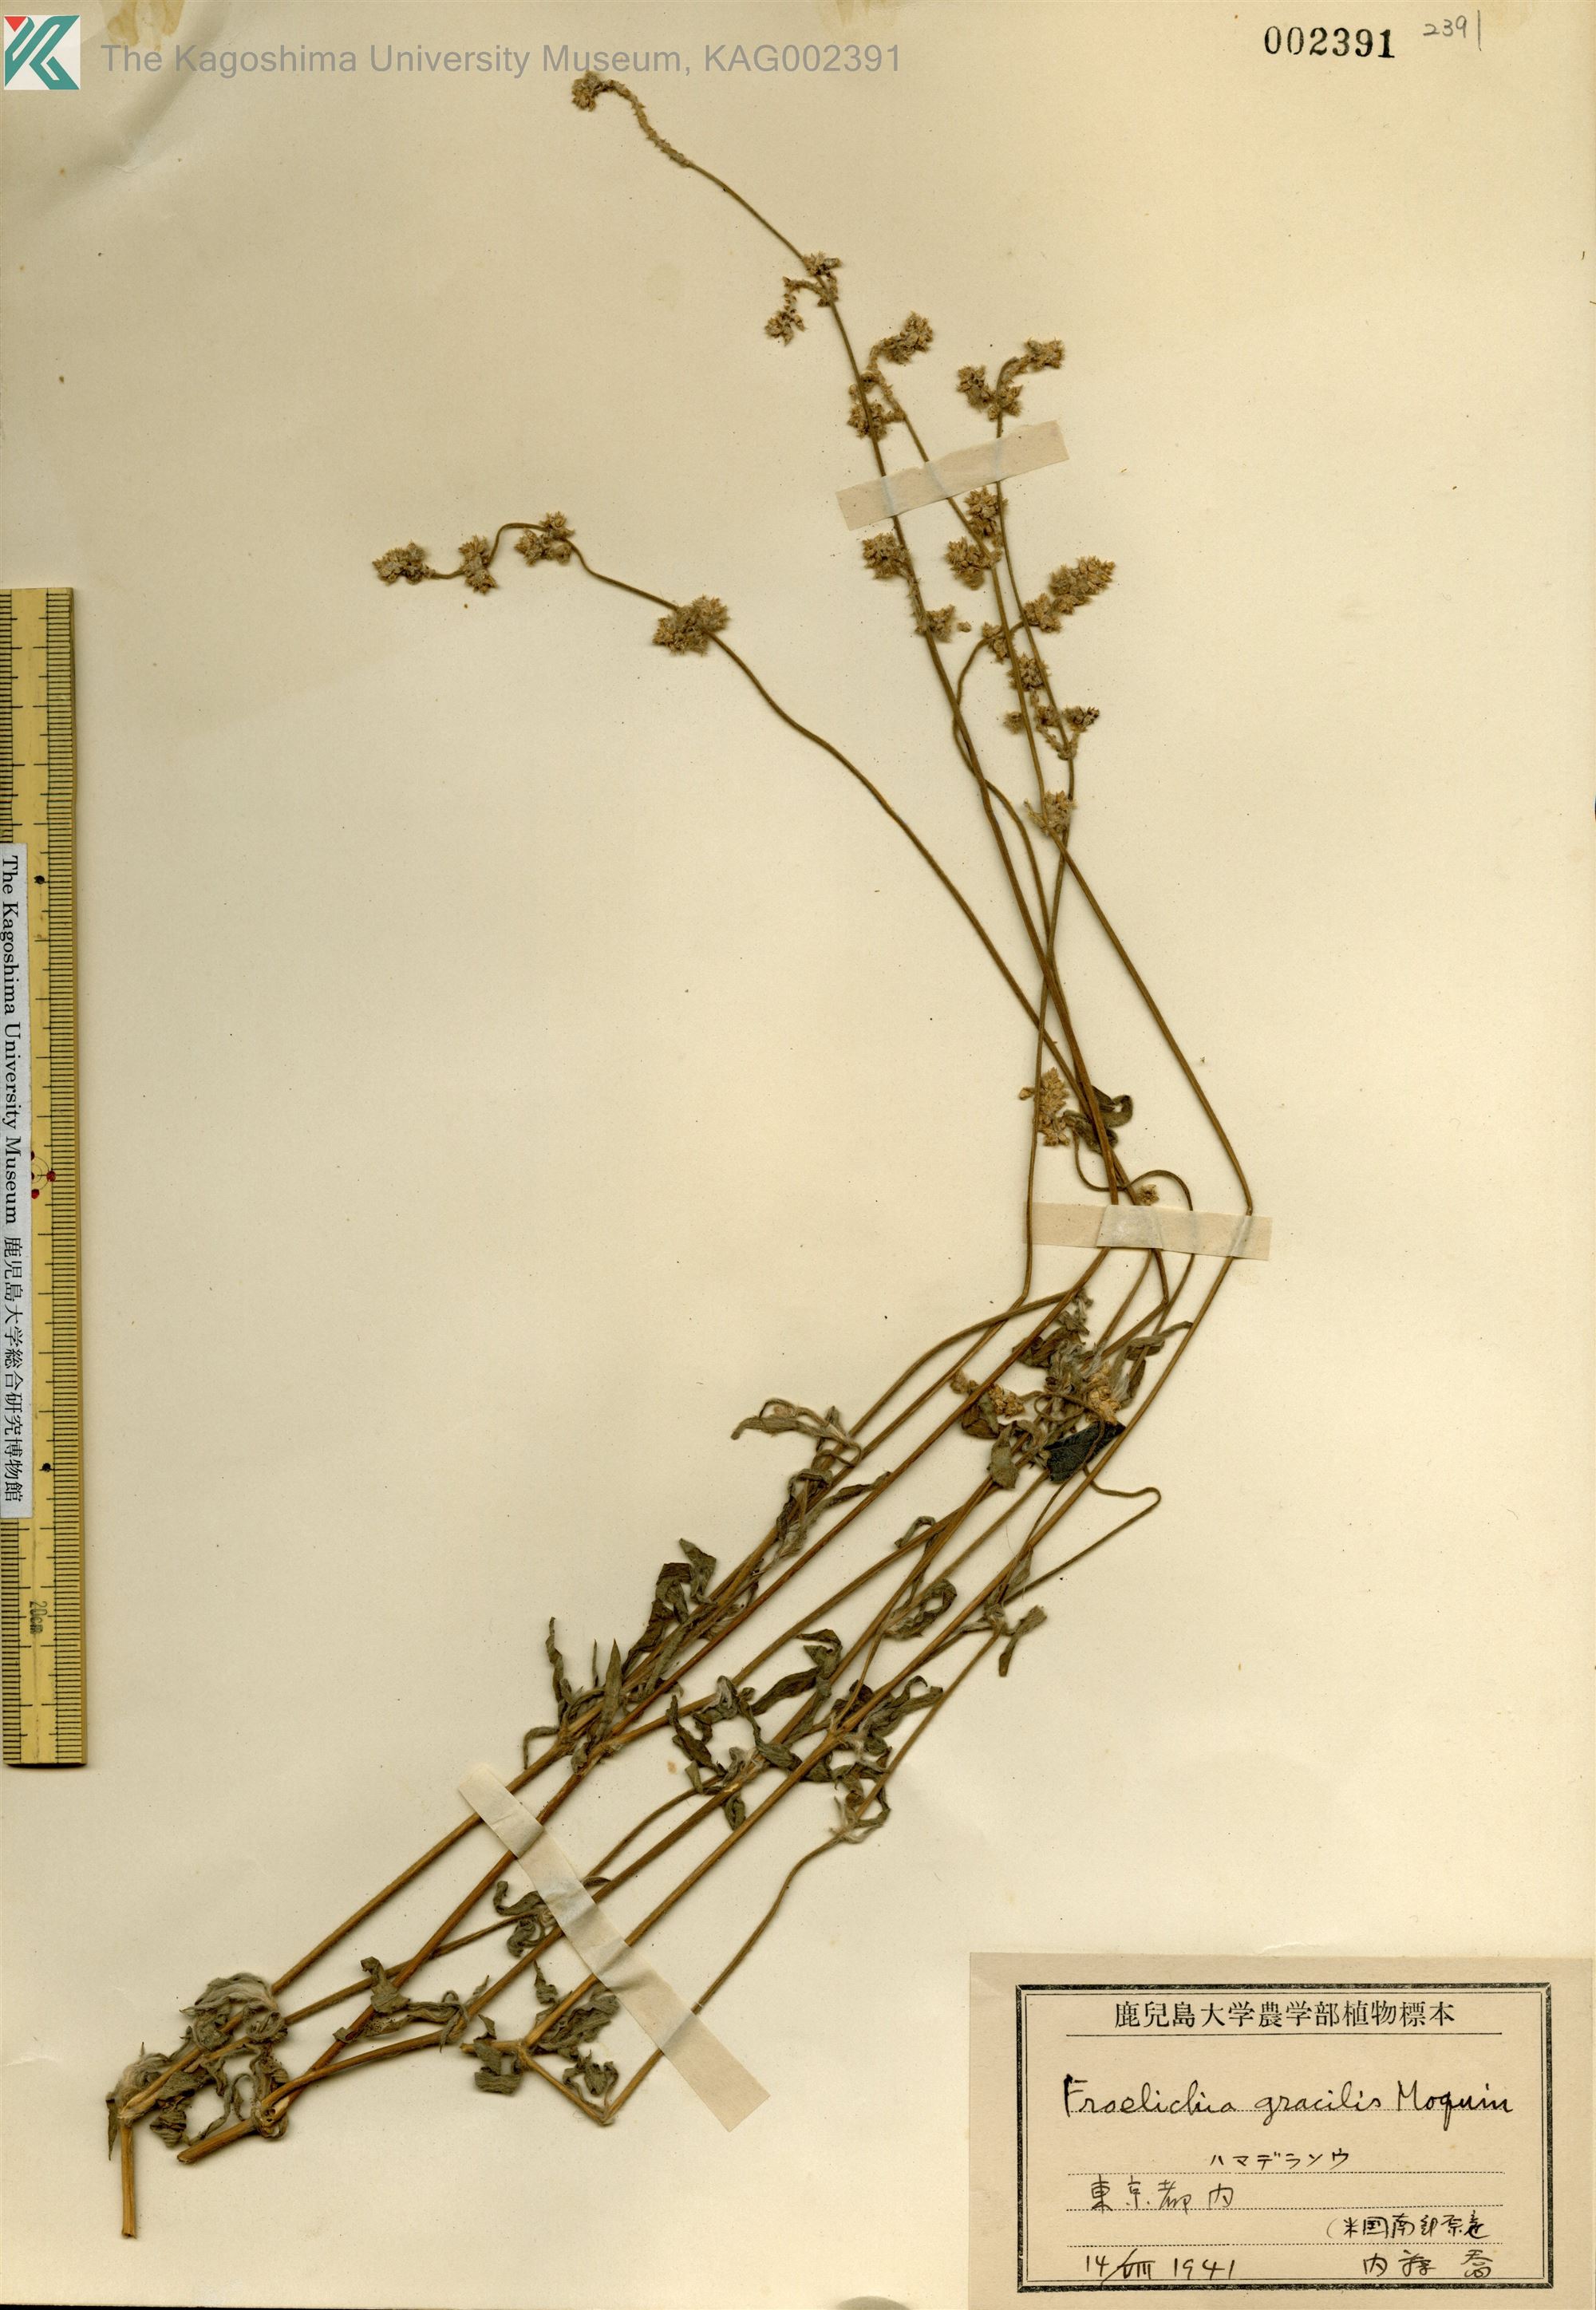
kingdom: Plantae
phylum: Tracheophyta
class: Magnoliopsida
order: Caryophyllales
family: Amaranthaceae
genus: Froelichia
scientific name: Froelichia gracilis
